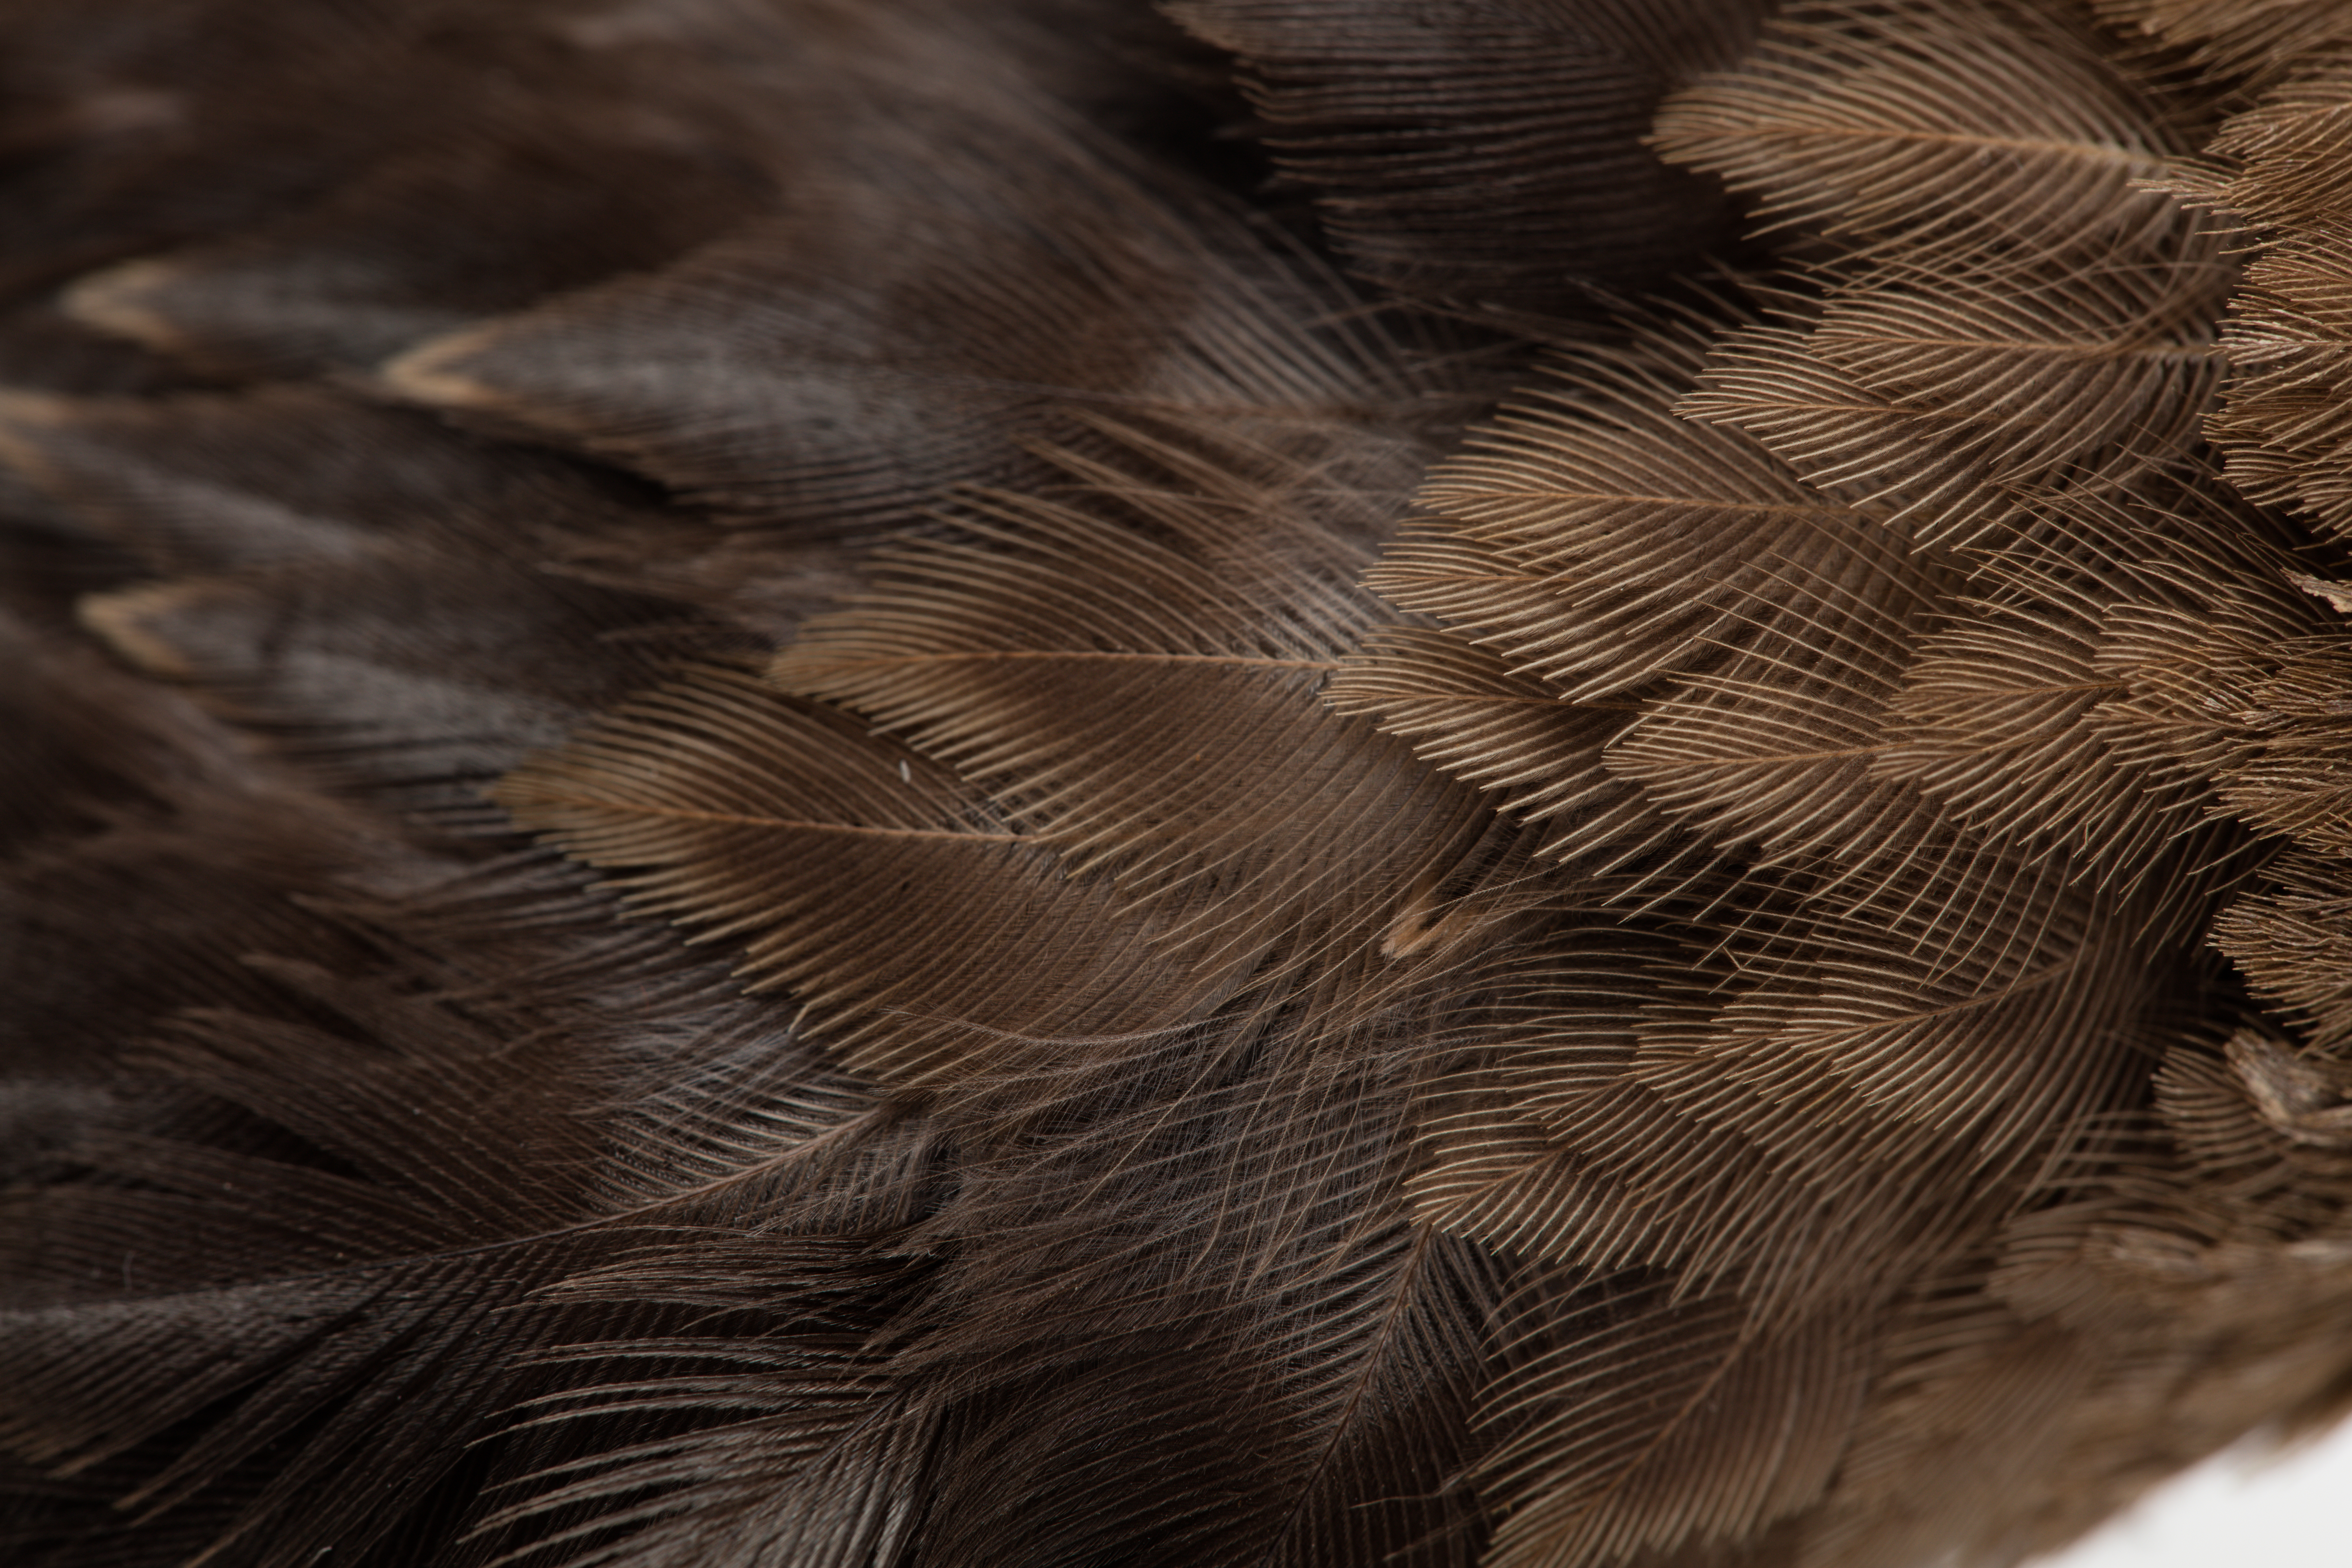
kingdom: Animalia
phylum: Chordata
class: Aves
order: Passeriformes
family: Sturnidae
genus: Sturnus
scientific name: Sturnus unicolor
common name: Spotless starling
